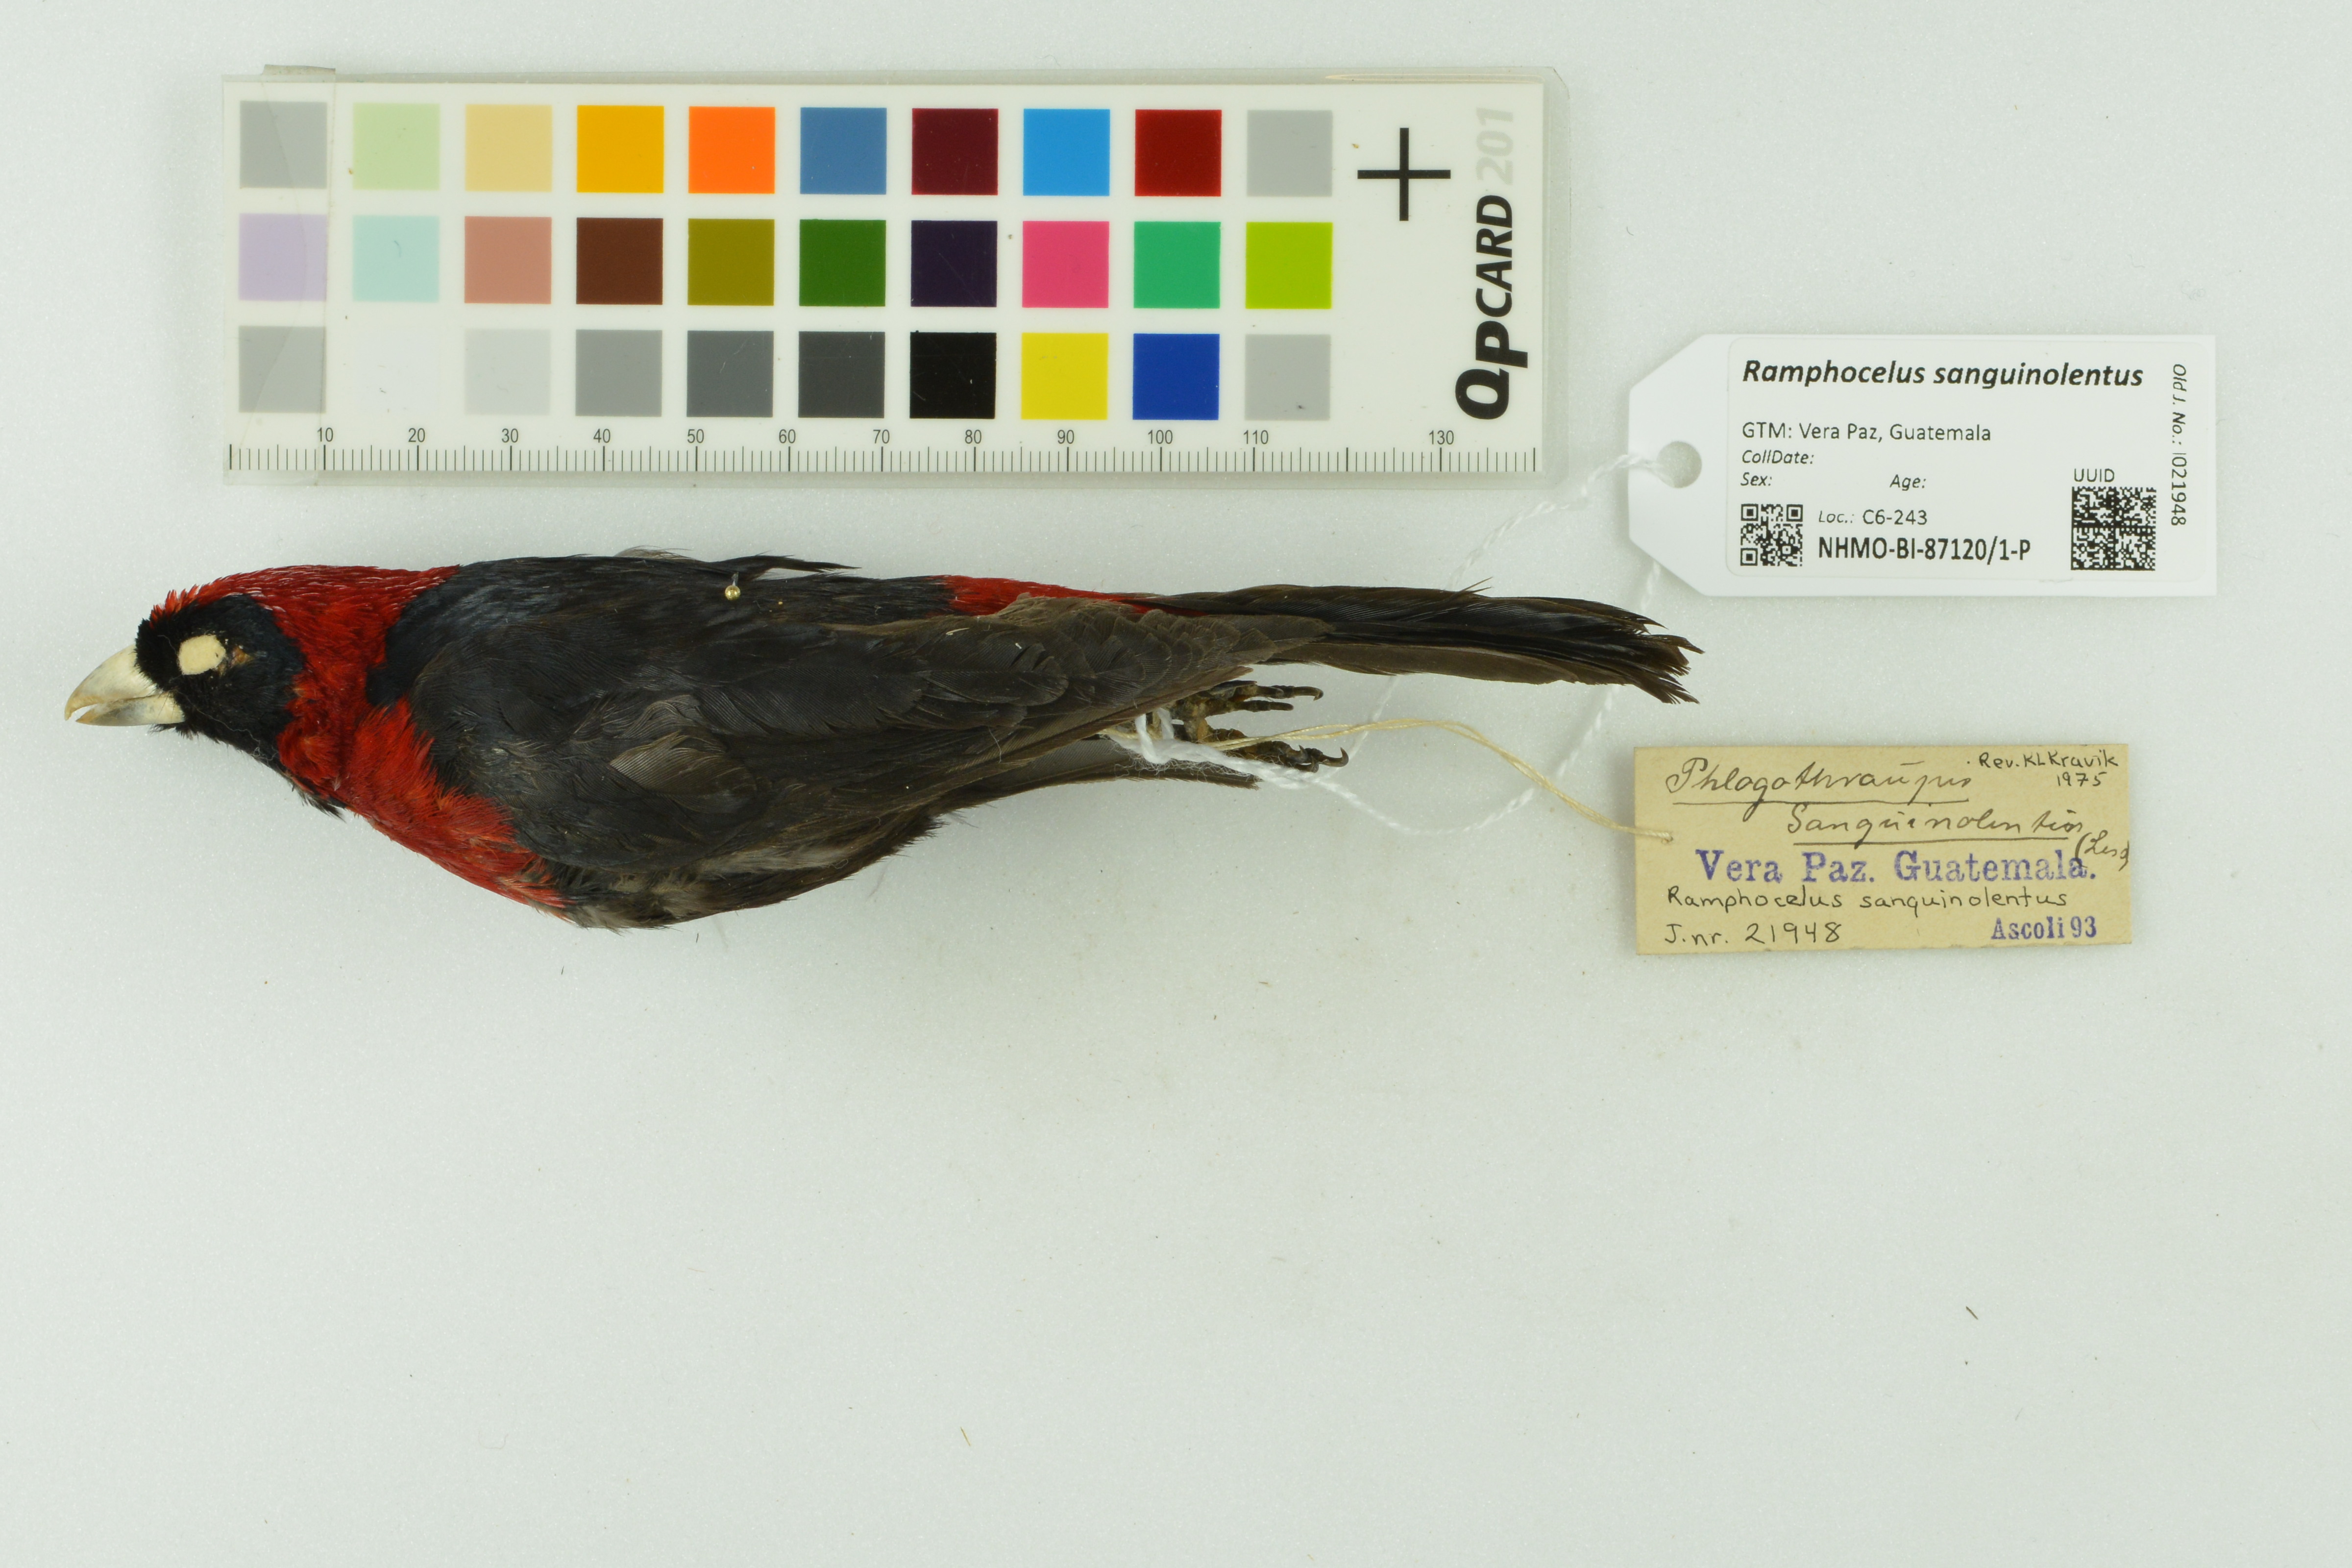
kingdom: Animalia
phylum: Chordata
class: Aves
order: Passeriformes
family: Thraupidae
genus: Ramphocelus
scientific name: Ramphocelus sanguinolentus
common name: Crimson-collared tanager
